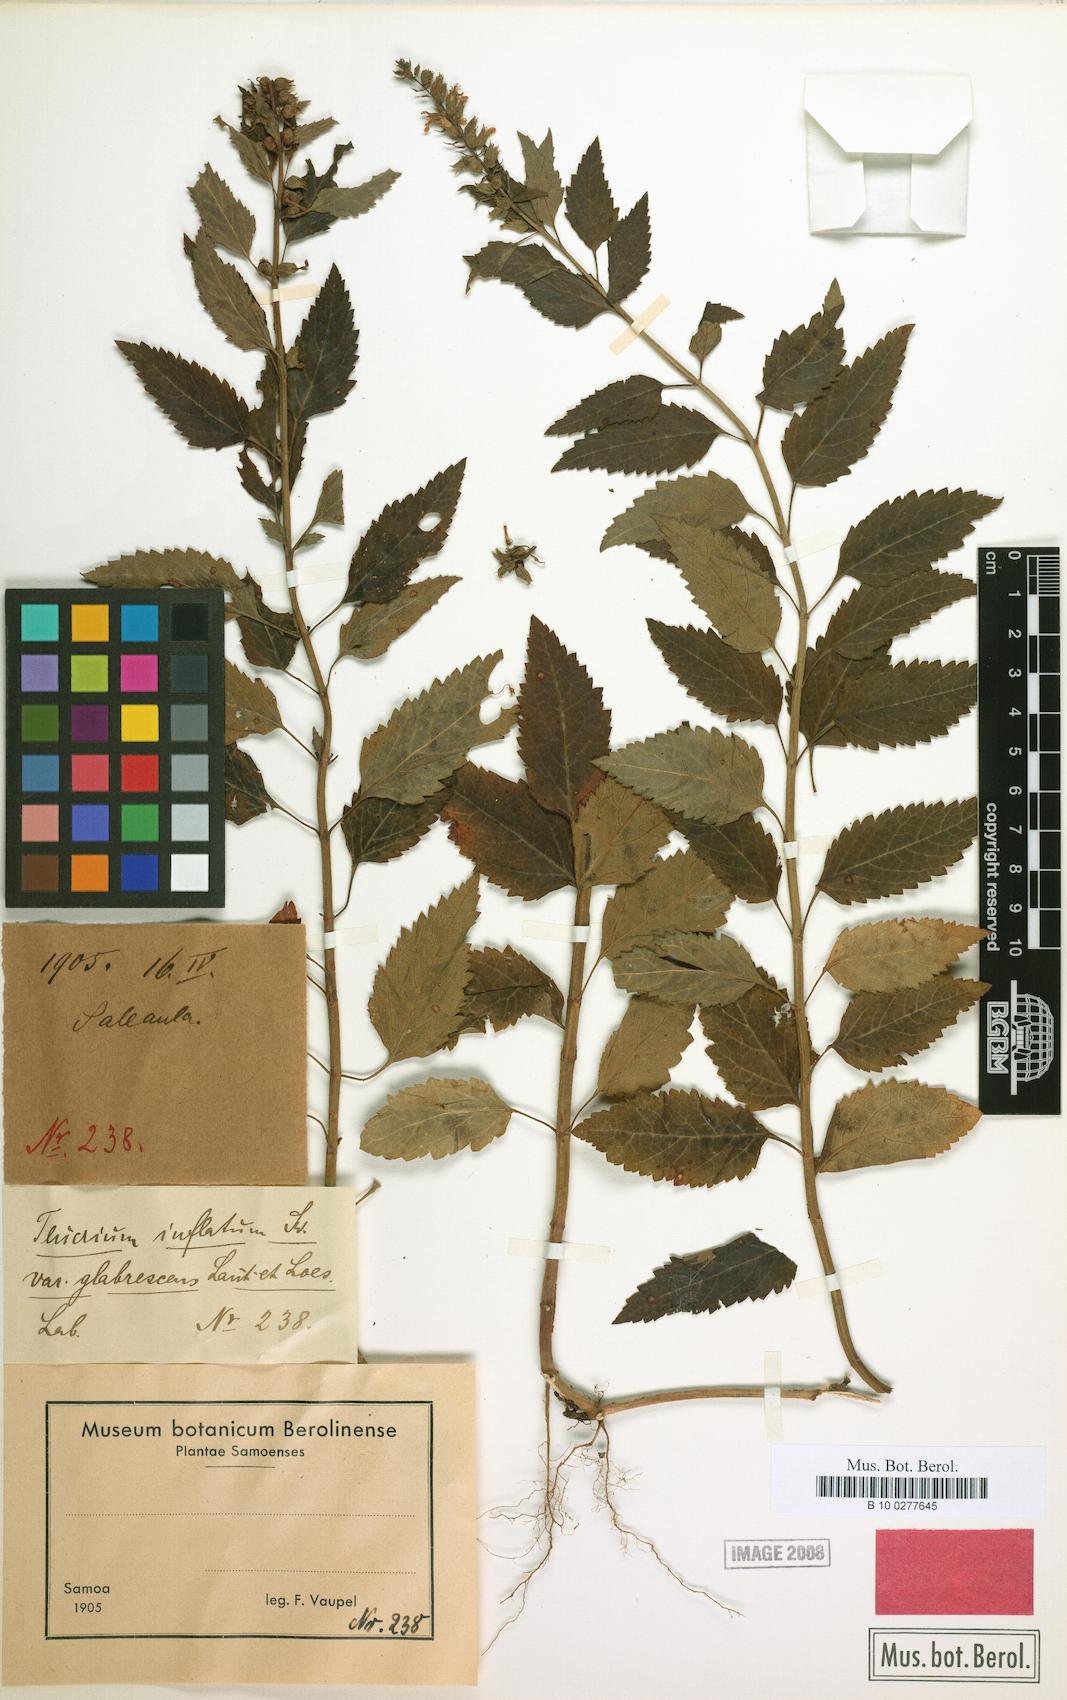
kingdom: Plantae
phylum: Tracheophyta
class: Magnoliopsida
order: Lamiales
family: Lamiaceae
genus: Teucrium
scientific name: Teucrium
